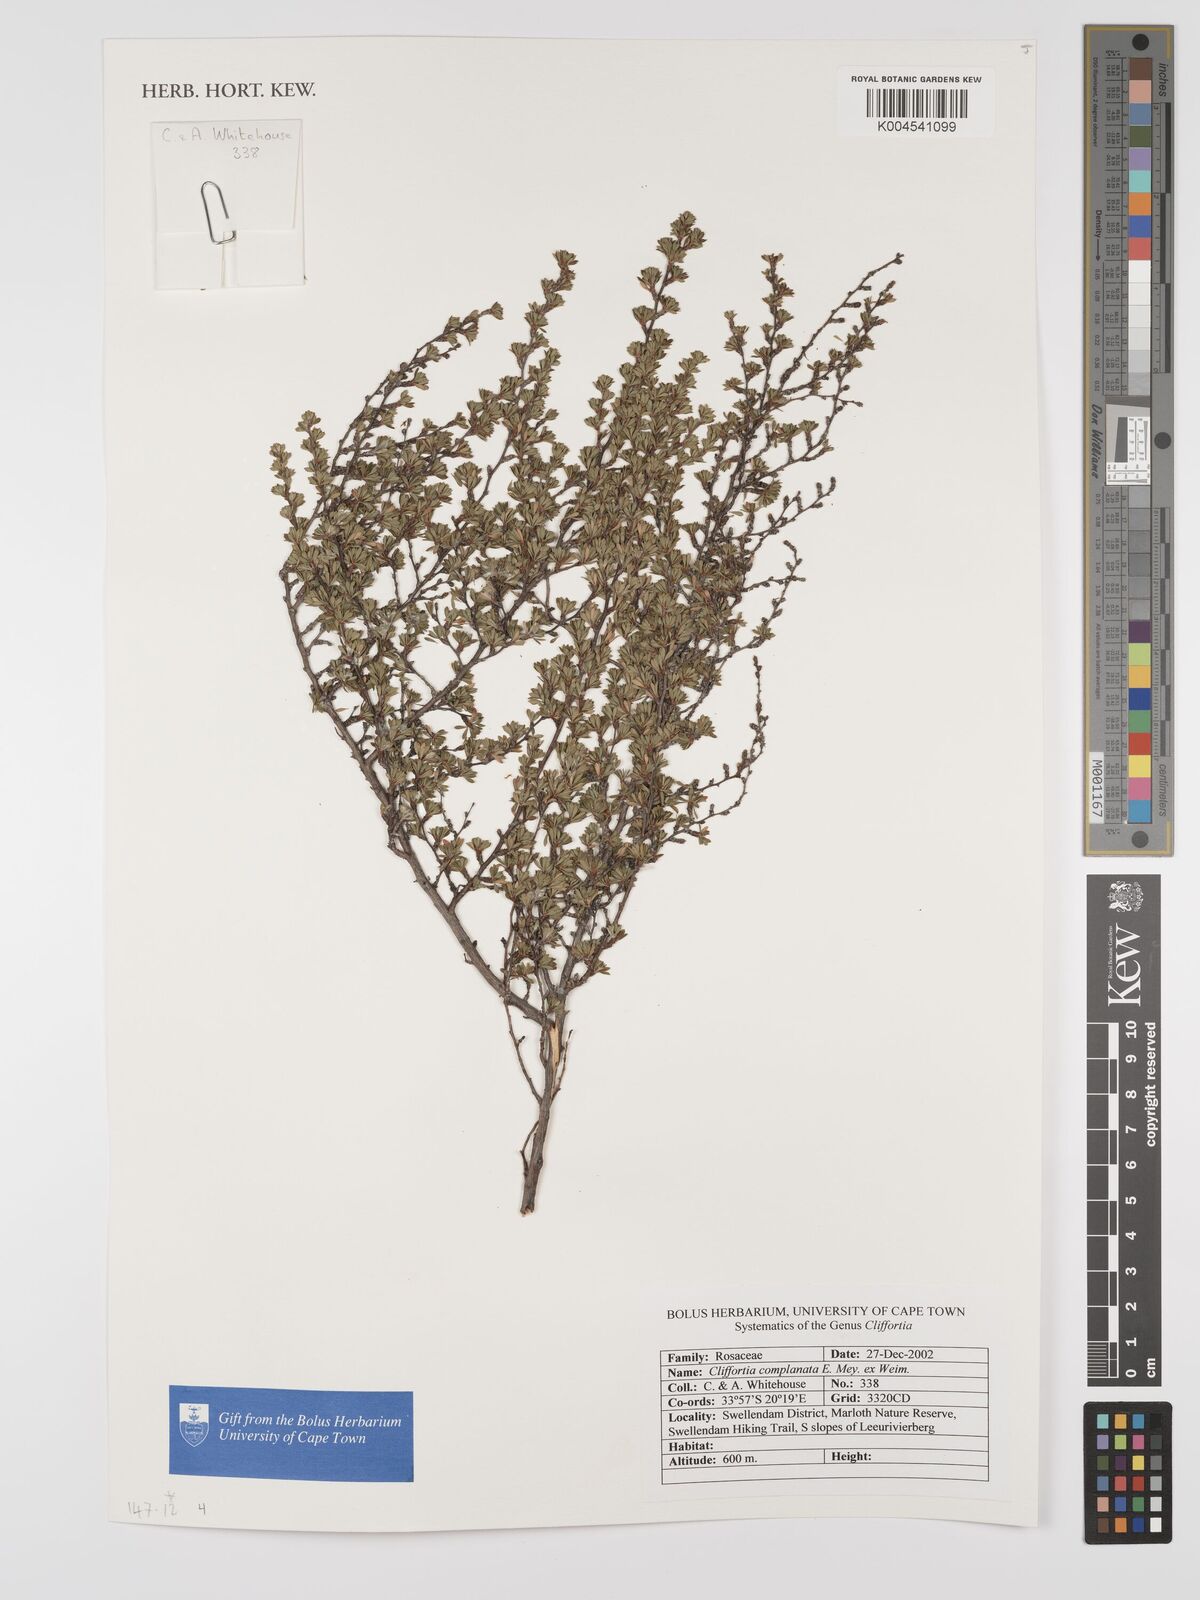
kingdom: Plantae
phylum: Tracheophyta
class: Magnoliopsida
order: Rosales
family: Rosaceae
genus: Cliffortia
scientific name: Cliffortia complanata
